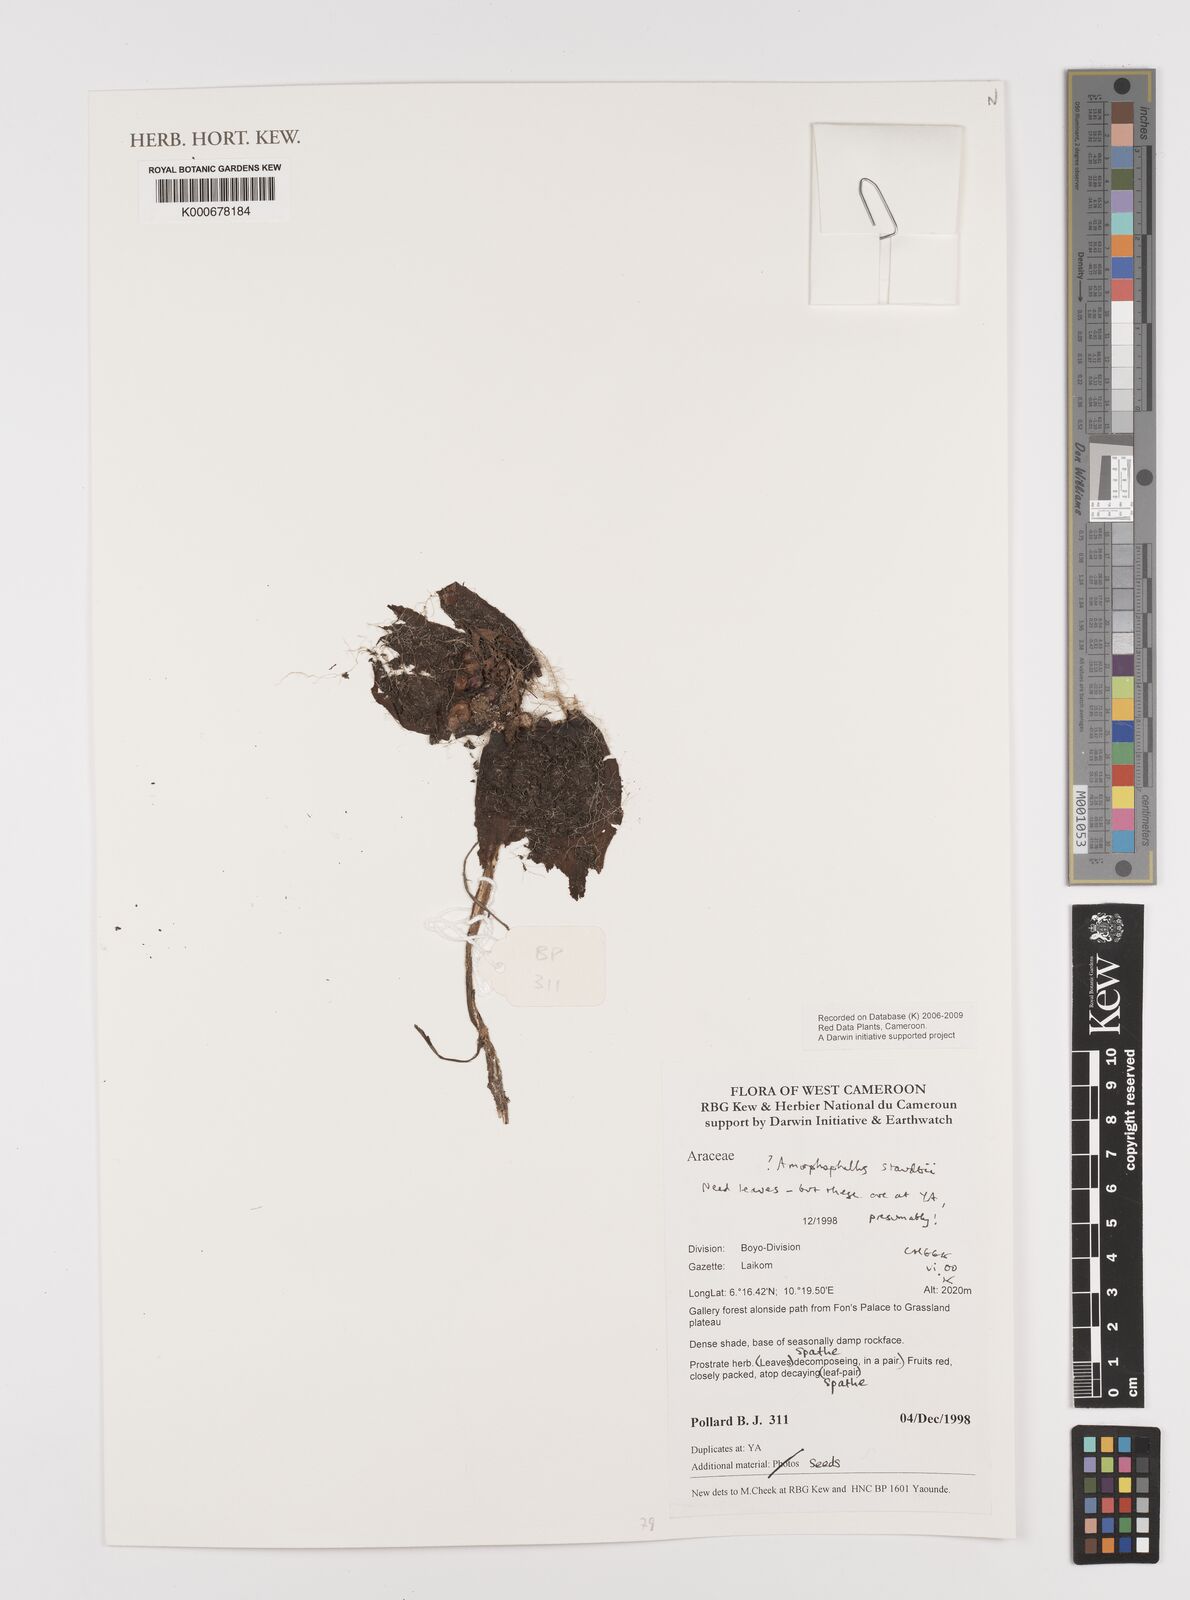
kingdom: Plantae
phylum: Tracheophyta
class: Liliopsida
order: Alismatales
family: Araceae
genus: Amorphophallus
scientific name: Amorphophallus
